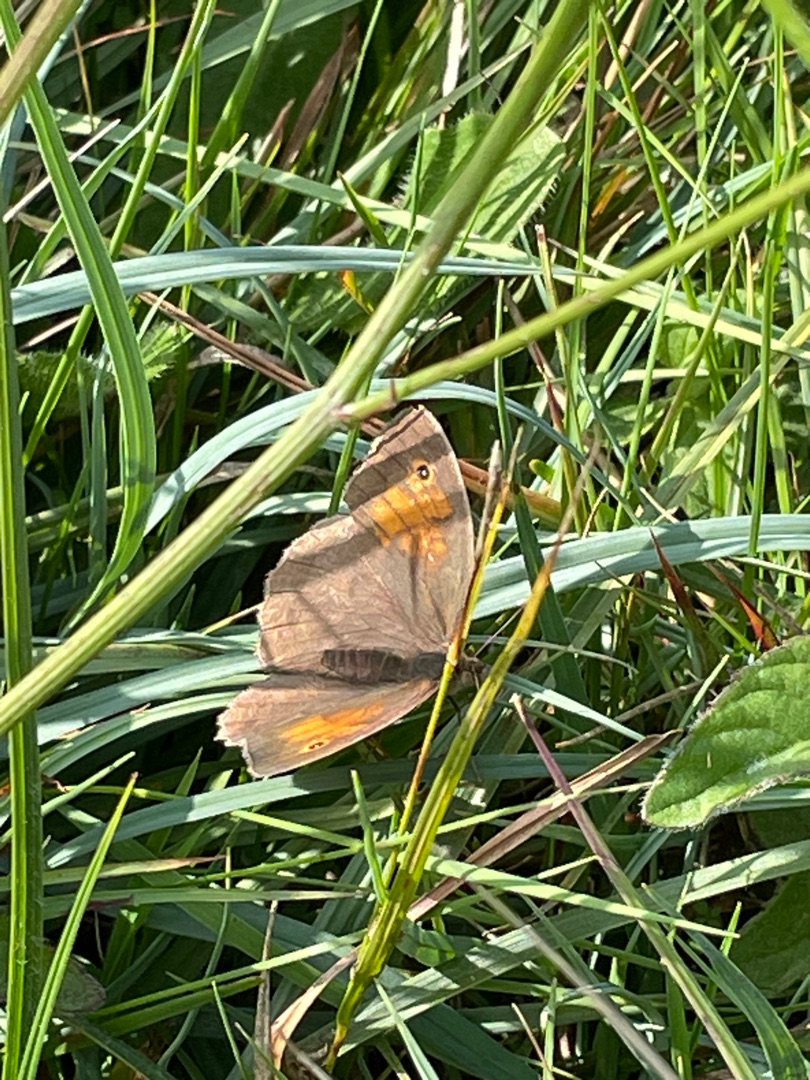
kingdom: Animalia
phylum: Arthropoda
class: Insecta
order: Lepidoptera
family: Nymphalidae
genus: Maniola
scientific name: Maniola jurtina
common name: Græsrandøje
